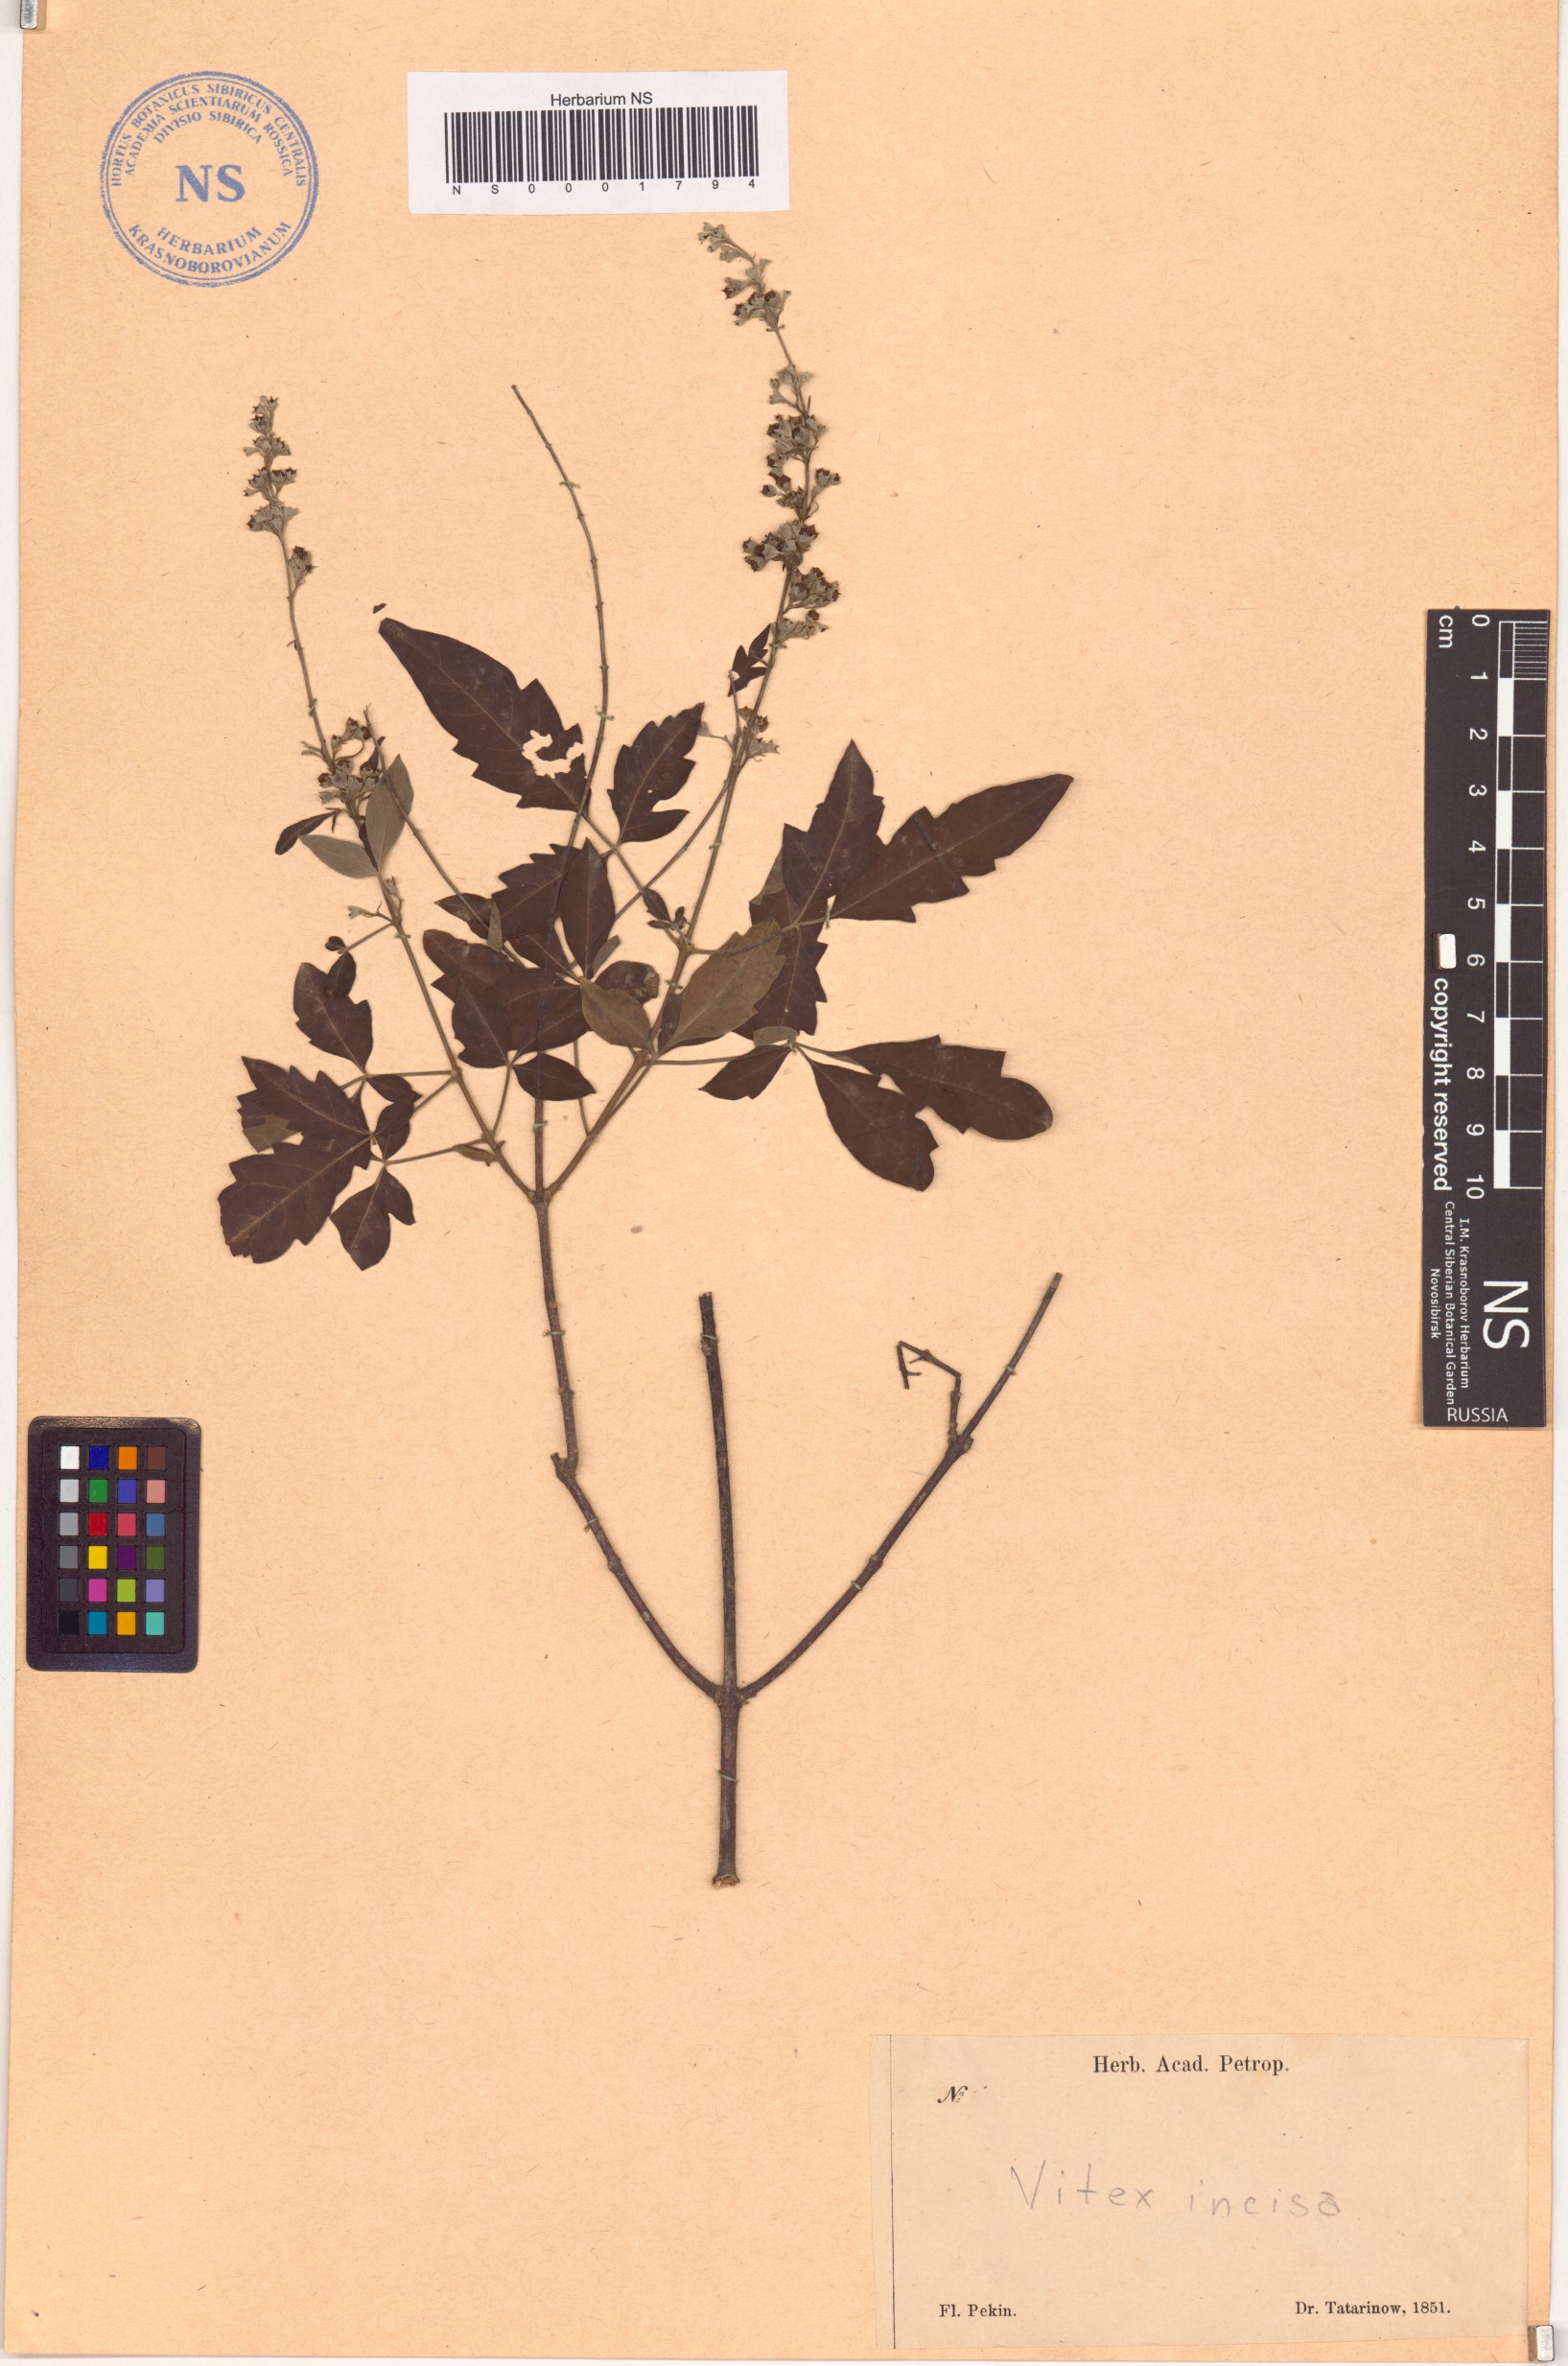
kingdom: Plantae
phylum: Tracheophyta
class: Magnoliopsida
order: Lamiales
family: Lamiaceae
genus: Vitex
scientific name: Vitex negundo
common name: Chinese chastetree
